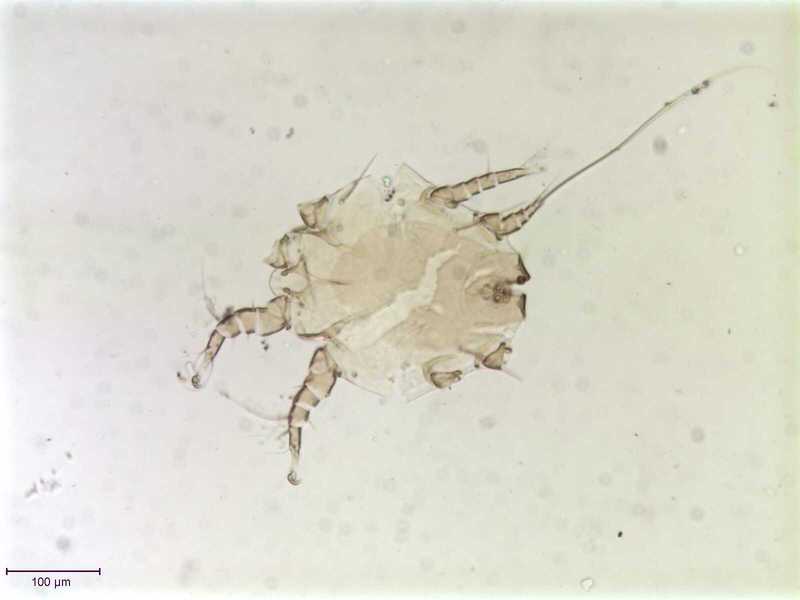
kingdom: Animalia
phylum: Arthropoda
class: Arachnida
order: Sarcoptiformes
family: Chaetodactylidae
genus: Sennertia
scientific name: Sennertia morstatti
